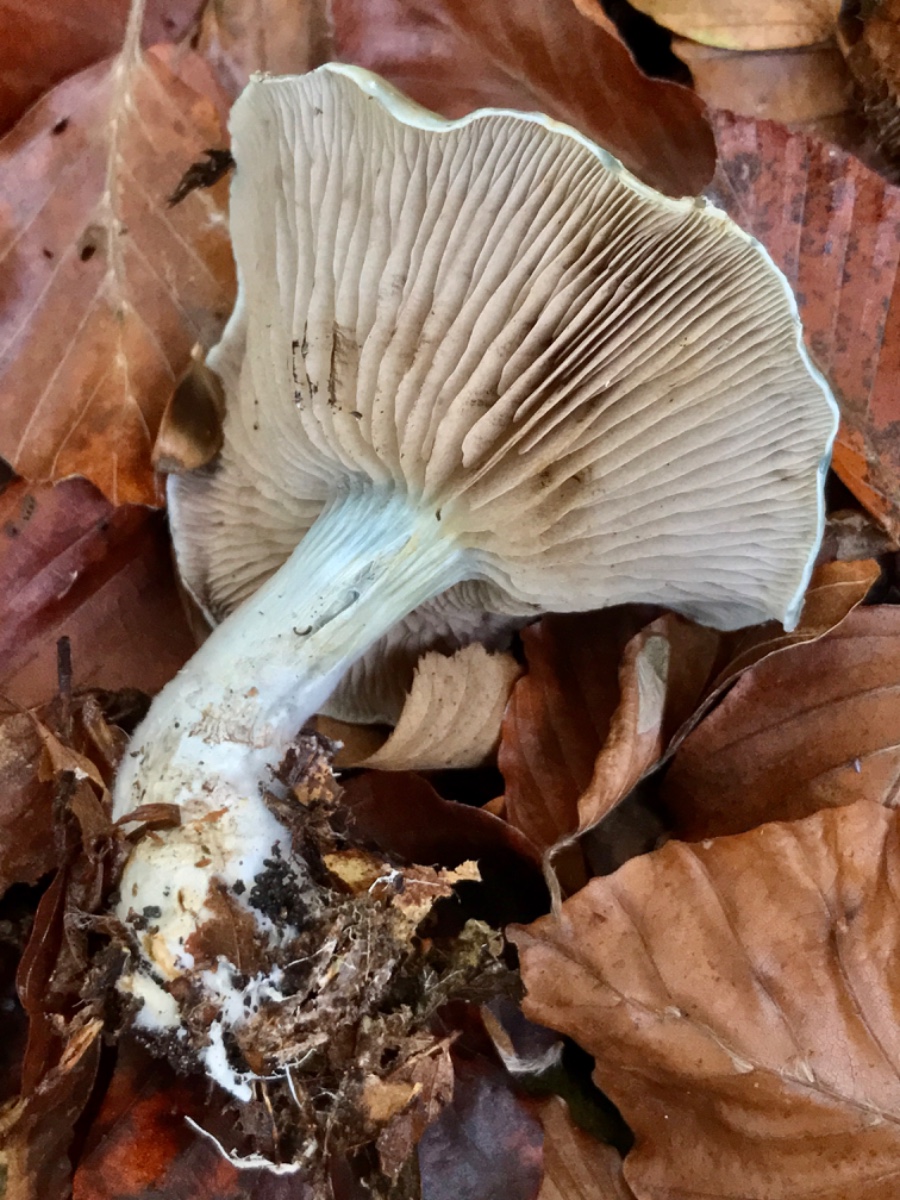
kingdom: Fungi
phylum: Basidiomycota
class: Agaricomycetes
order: Agaricales
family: Strophariaceae
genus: Stropharia
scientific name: Stropharia cyanea
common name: blågrøn bredblad
